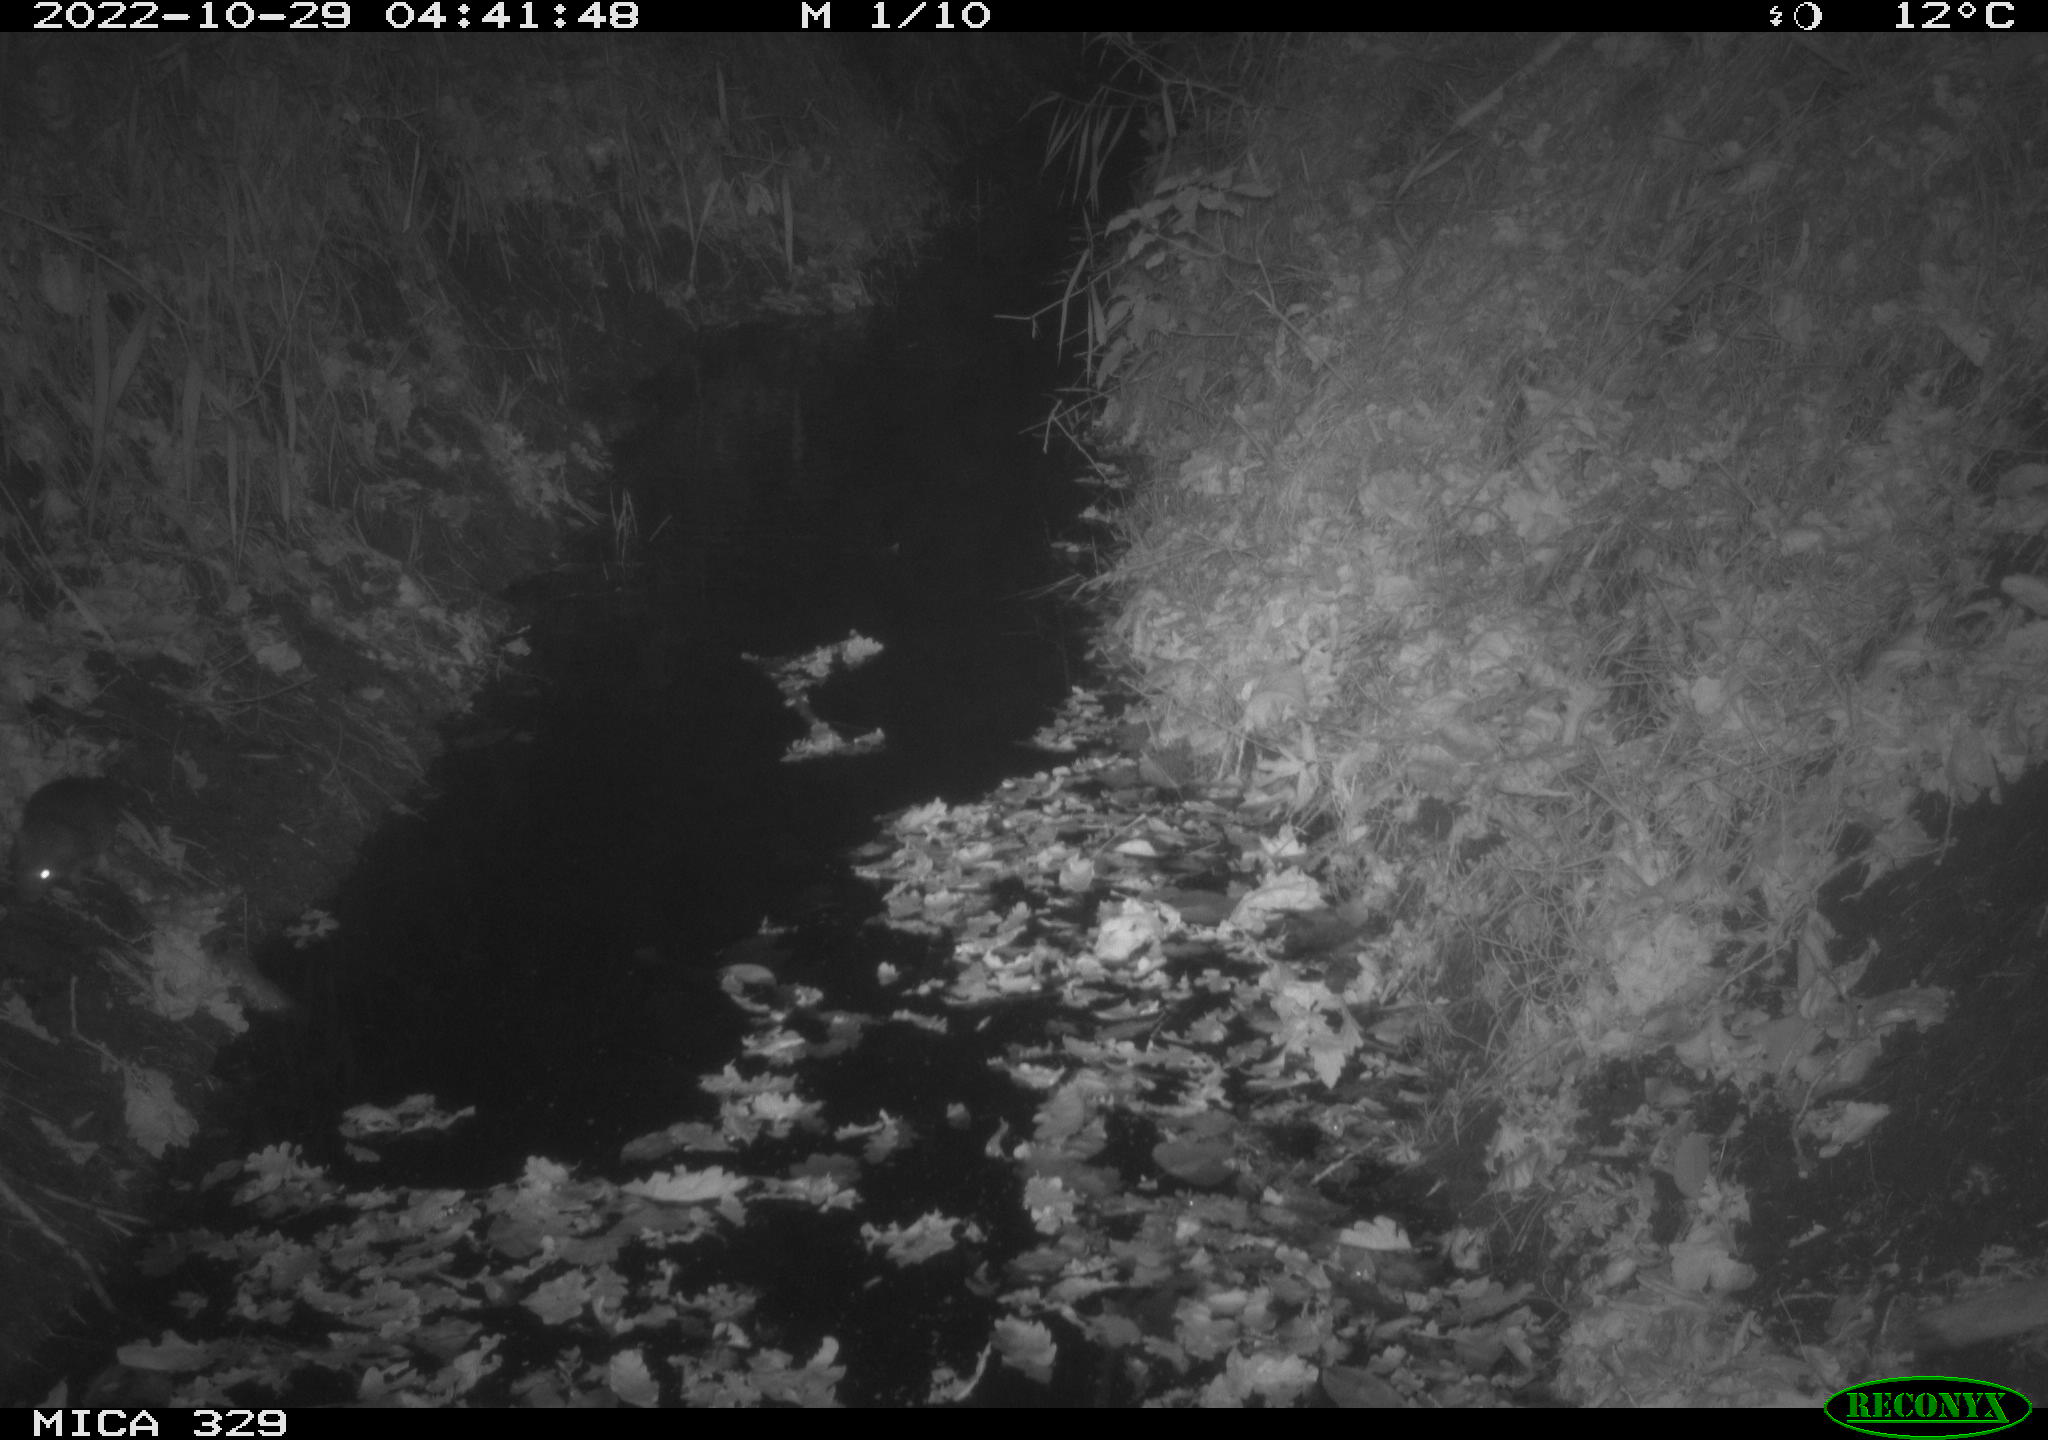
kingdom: Animalia
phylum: Chordata
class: Mammalia
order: Rodentia
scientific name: Rodentia
